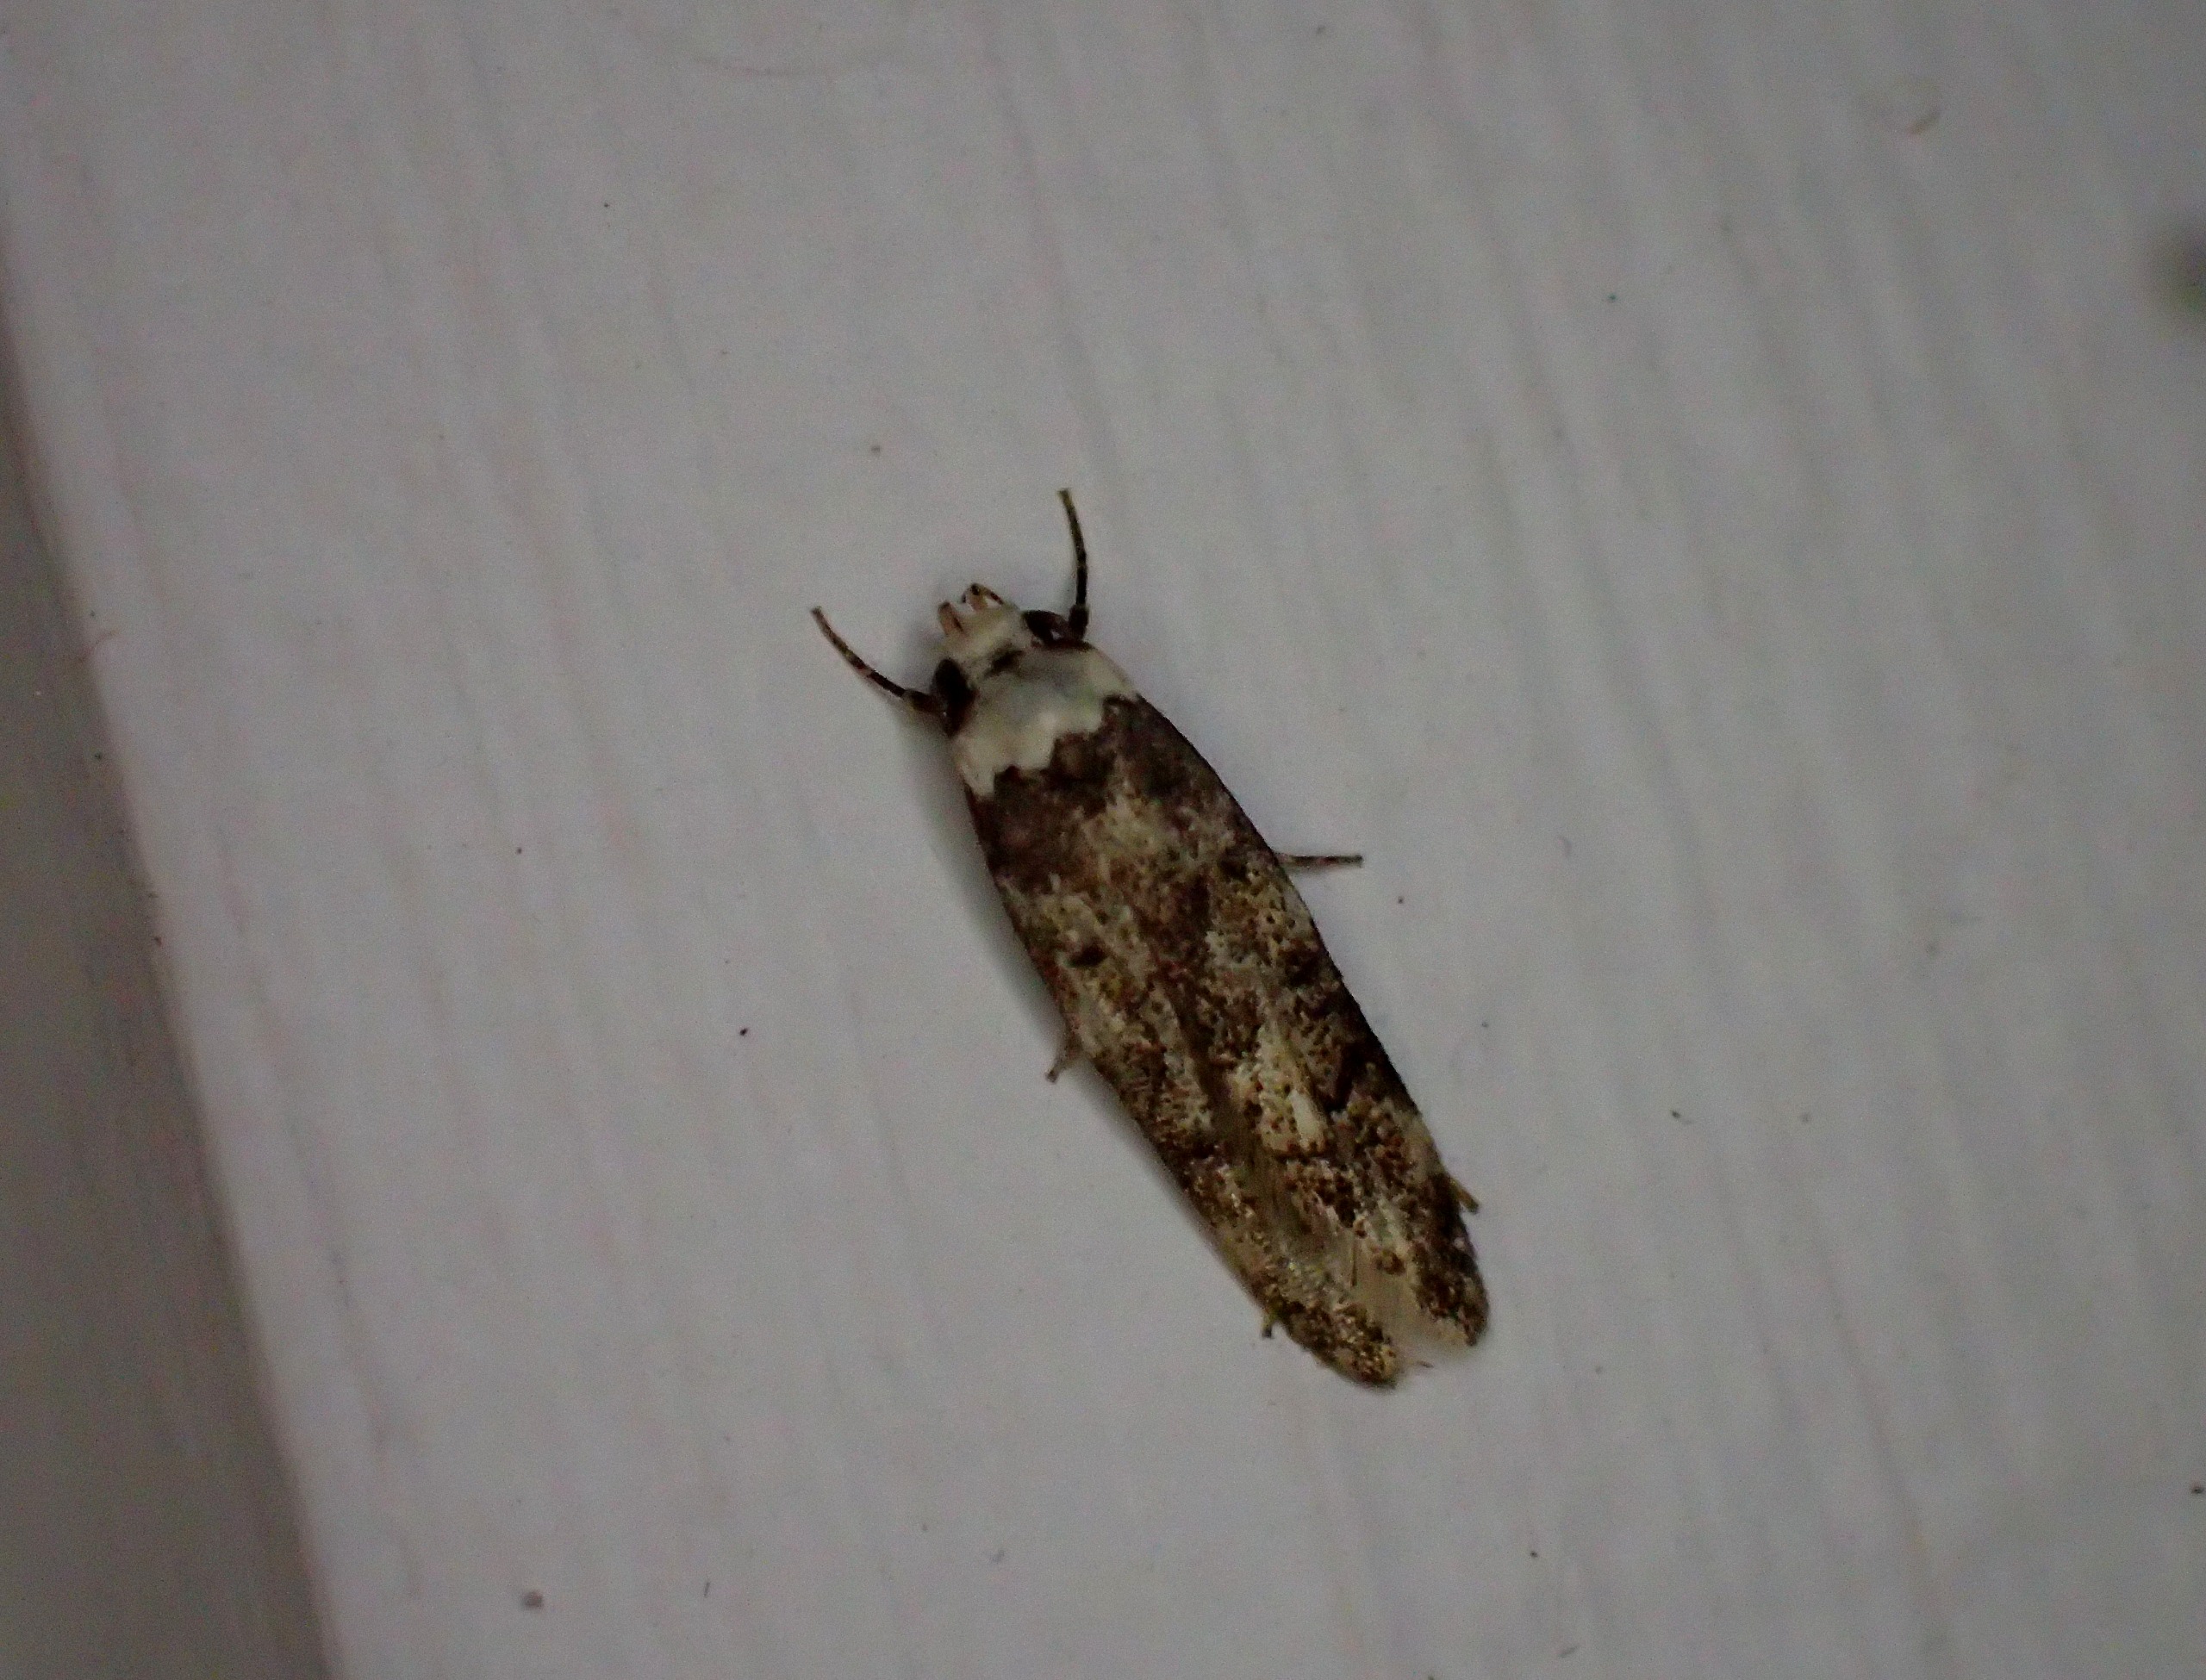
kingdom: Animalia
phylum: Arthropoda
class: Insecta
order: Lepidoptera
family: Oecophoridae
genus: Endrosis
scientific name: Endrosis sarcitrella
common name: Klistermøl
